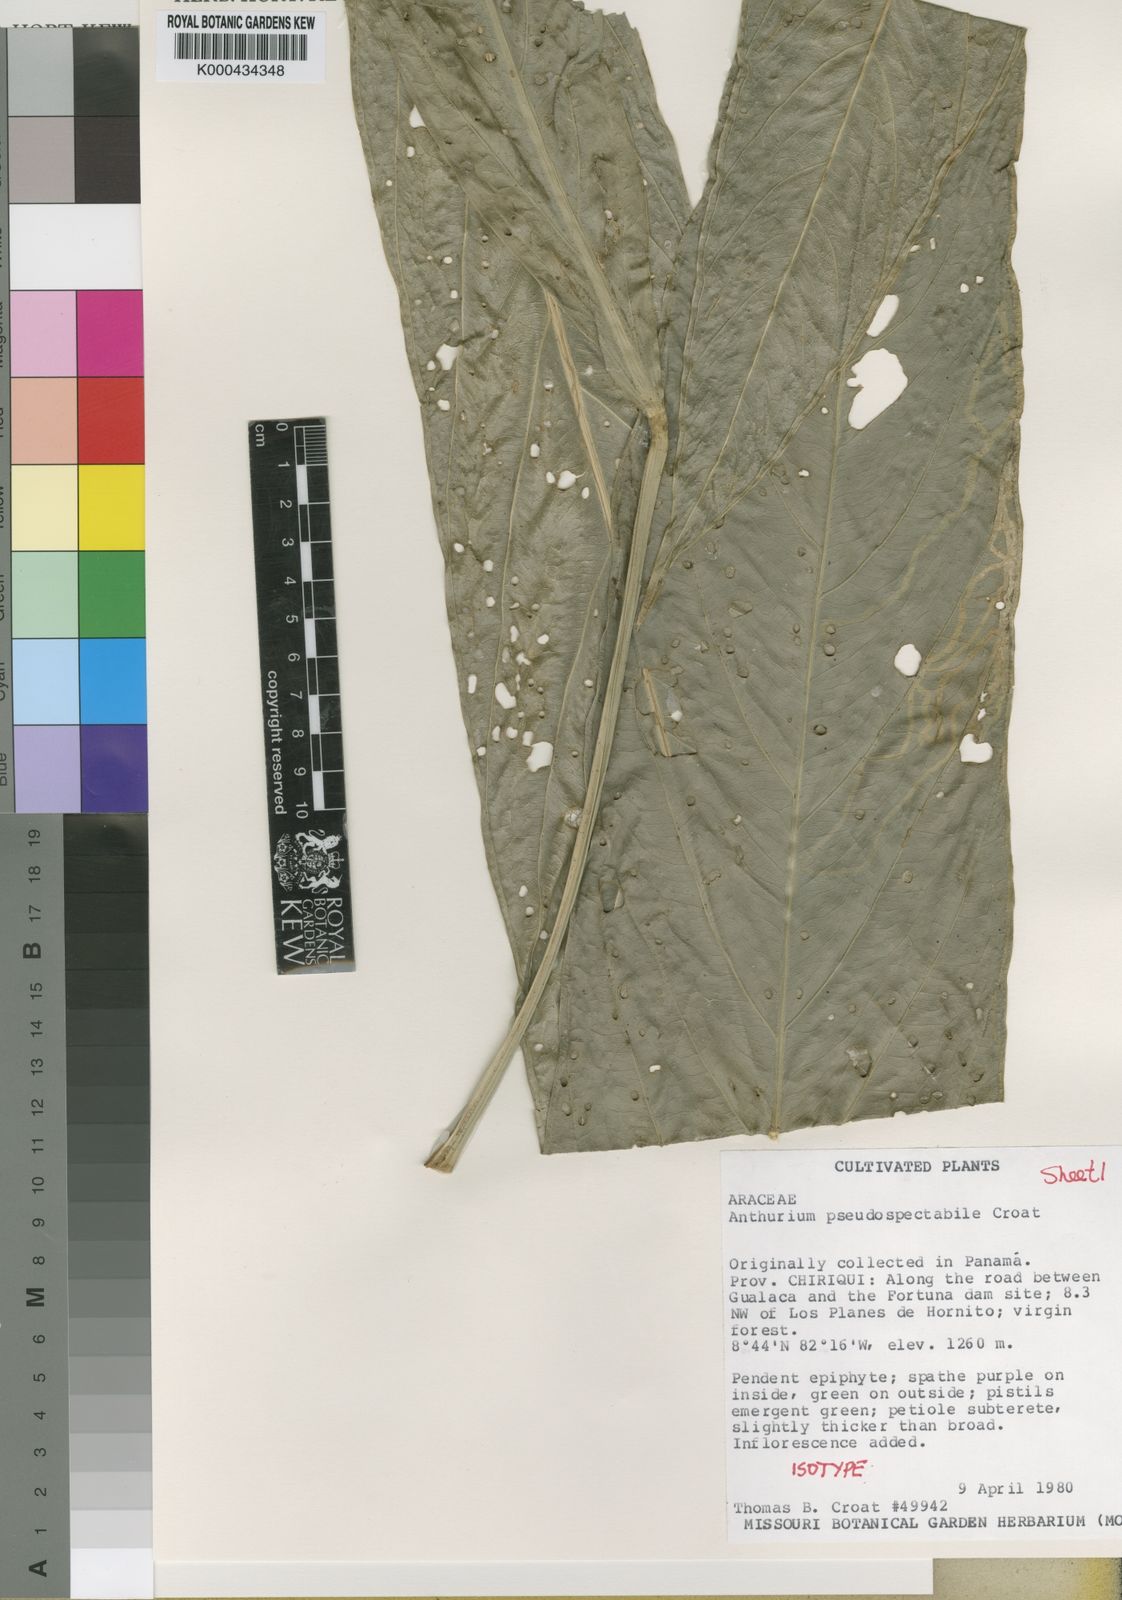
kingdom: Plantae
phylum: Tracheophyta
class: Liliopsida
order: Alismatales
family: Araceae
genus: Anthurium
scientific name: Anthurium pseudospectabile
